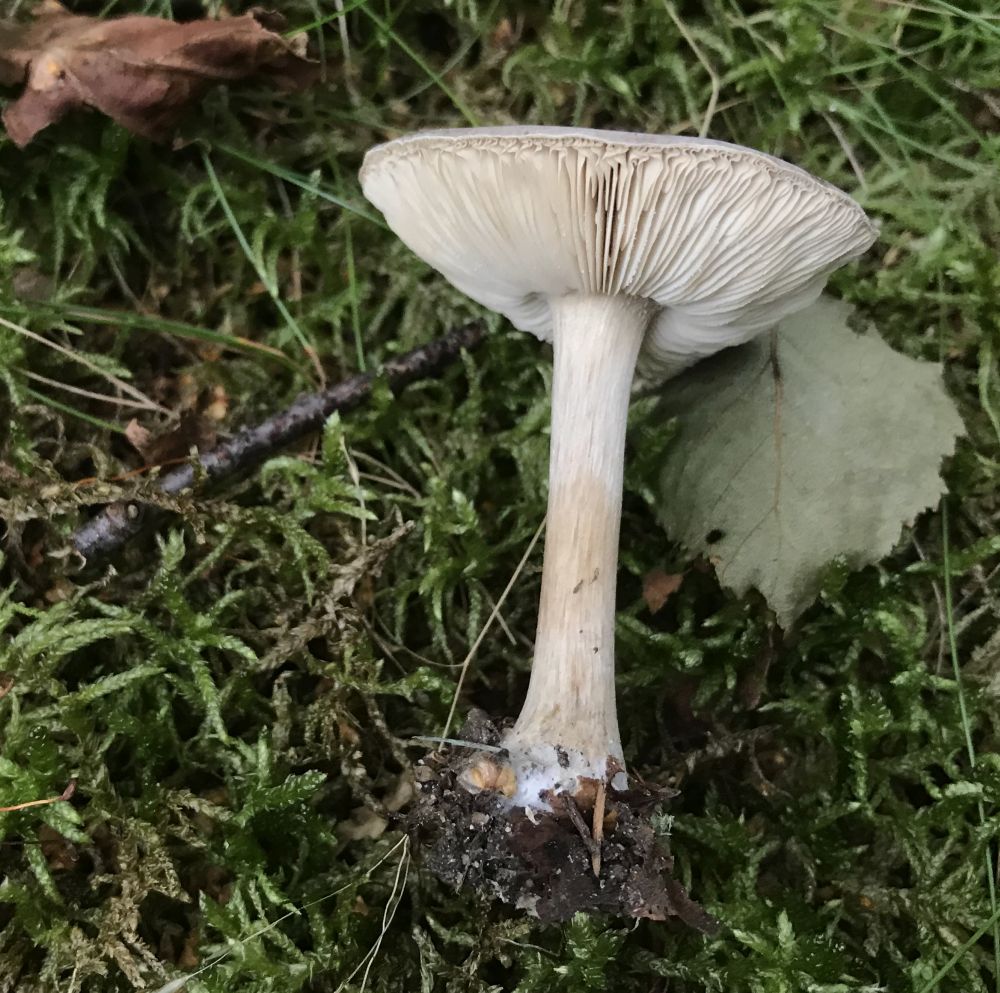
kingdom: Fungi
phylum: Basidiomycota
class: Agaricomycetes
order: Agaricales
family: Tricholomataceae
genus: Melanoleuca
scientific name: Melanoleuca
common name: munkehat
